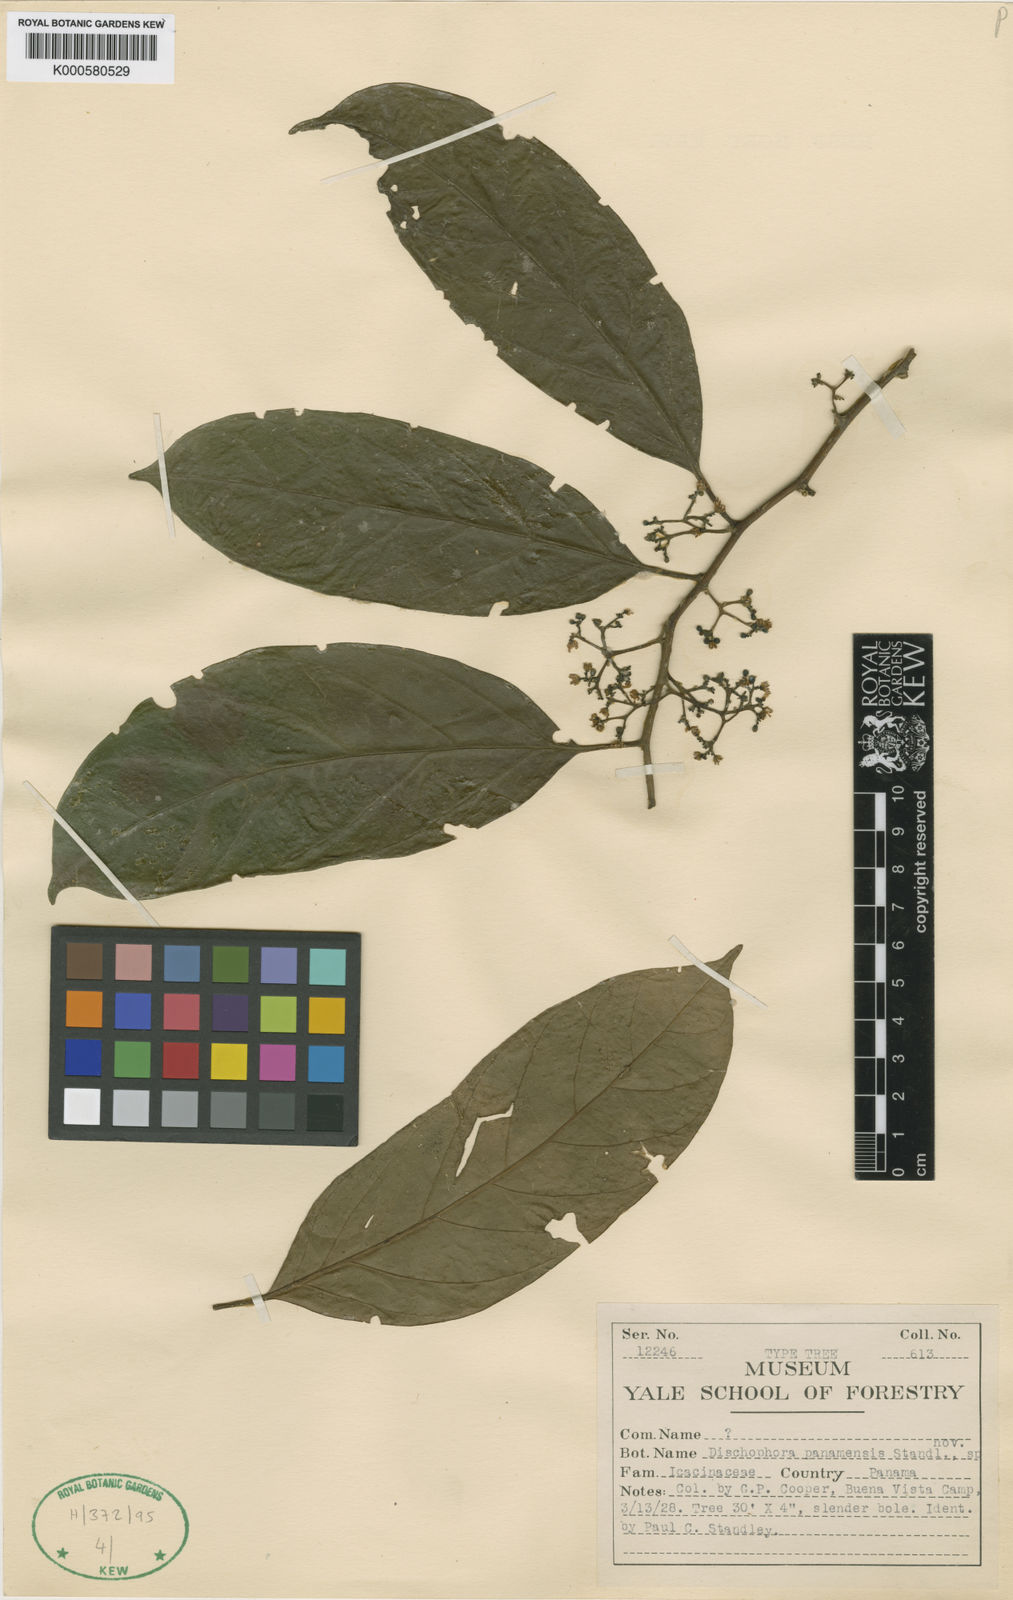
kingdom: Plantae
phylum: Tracheophyta
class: Magnoliopsida
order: Cardiopteridales
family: Stemonuraceae
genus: Discophora
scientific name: Discophora guianensis
